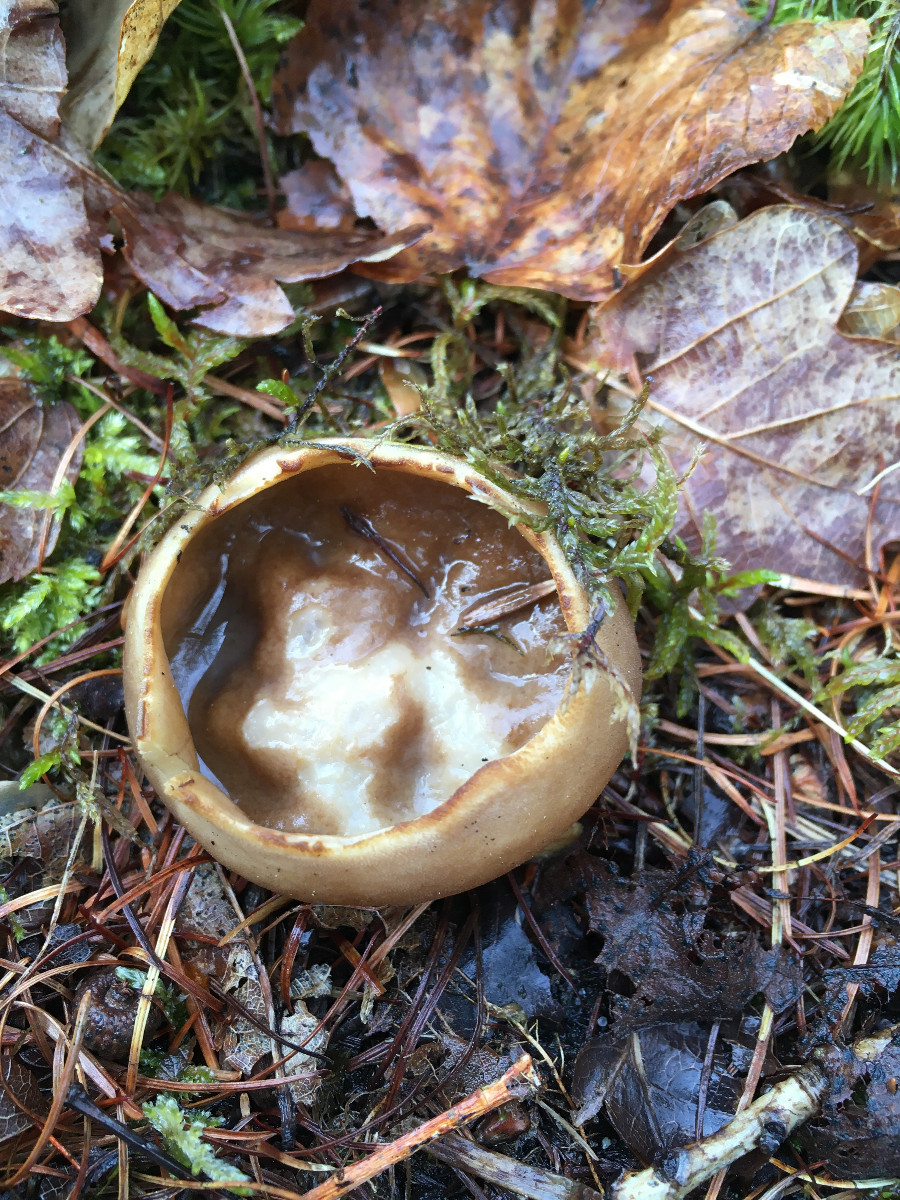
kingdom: Fungi
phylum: Ascomycota
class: Pezizomycetes
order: Pezizales
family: Helvellaceae
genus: Helvella
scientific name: Helvella acetabulum
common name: pokal-foldhat
